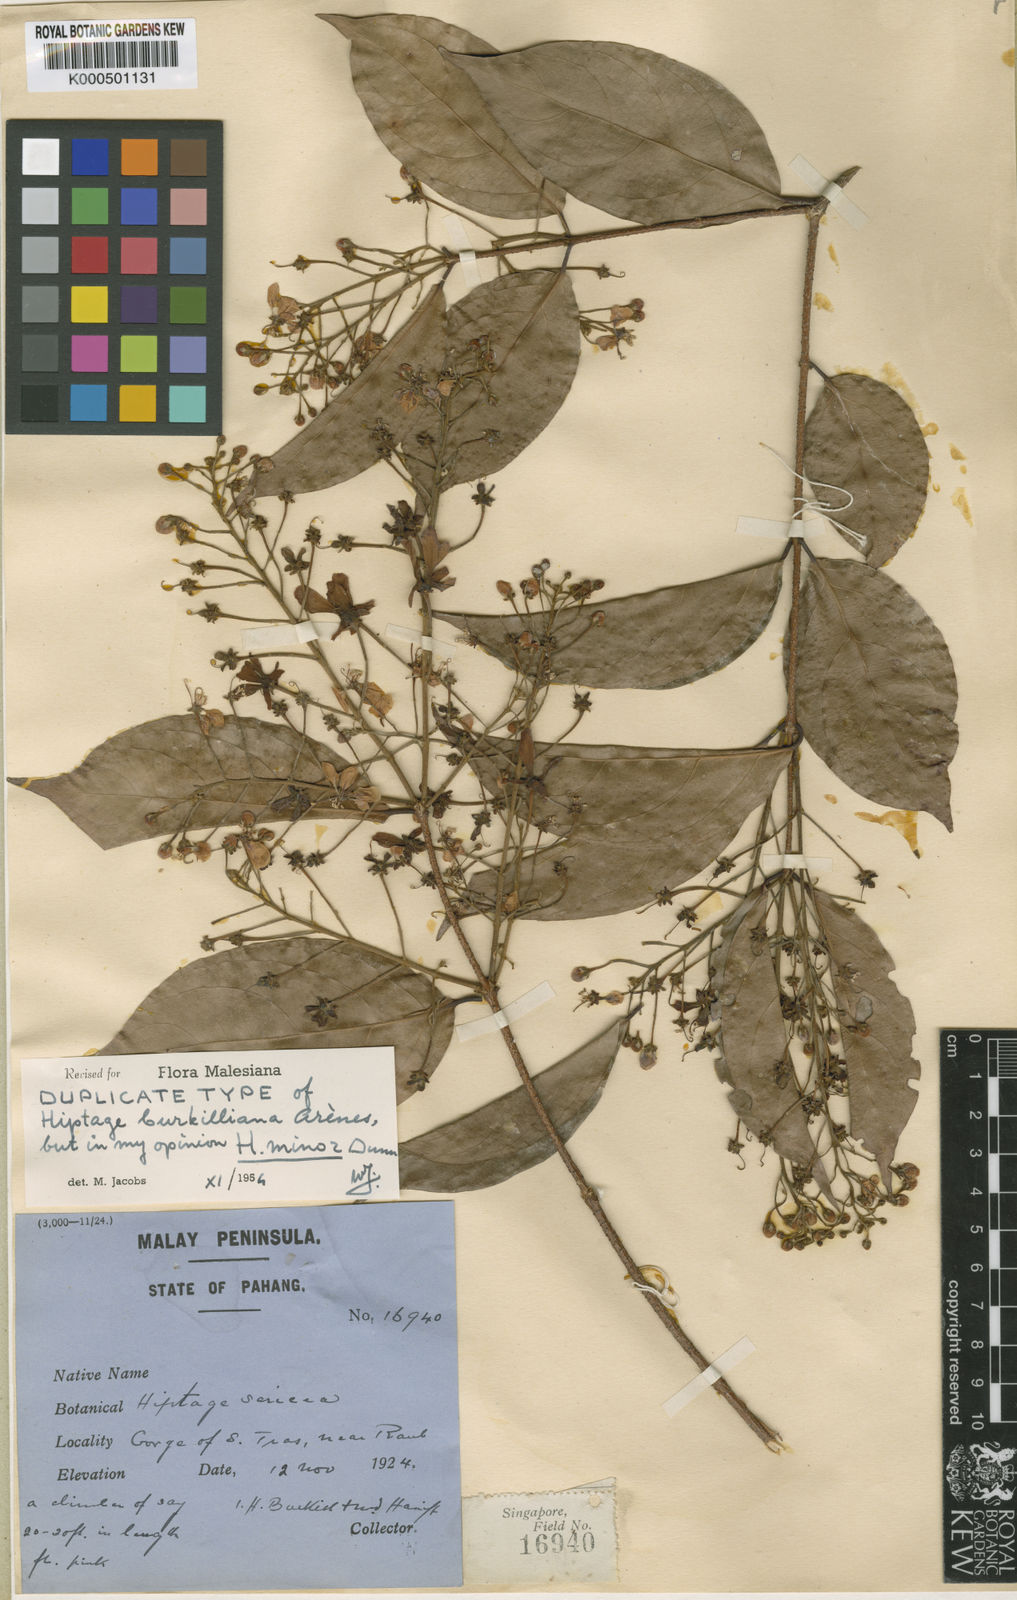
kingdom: Plantae
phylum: Tracheophyta
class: Magnoliopsida
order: Malpighiales
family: Malpighiaceae
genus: Hiptage
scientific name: Hiptage
